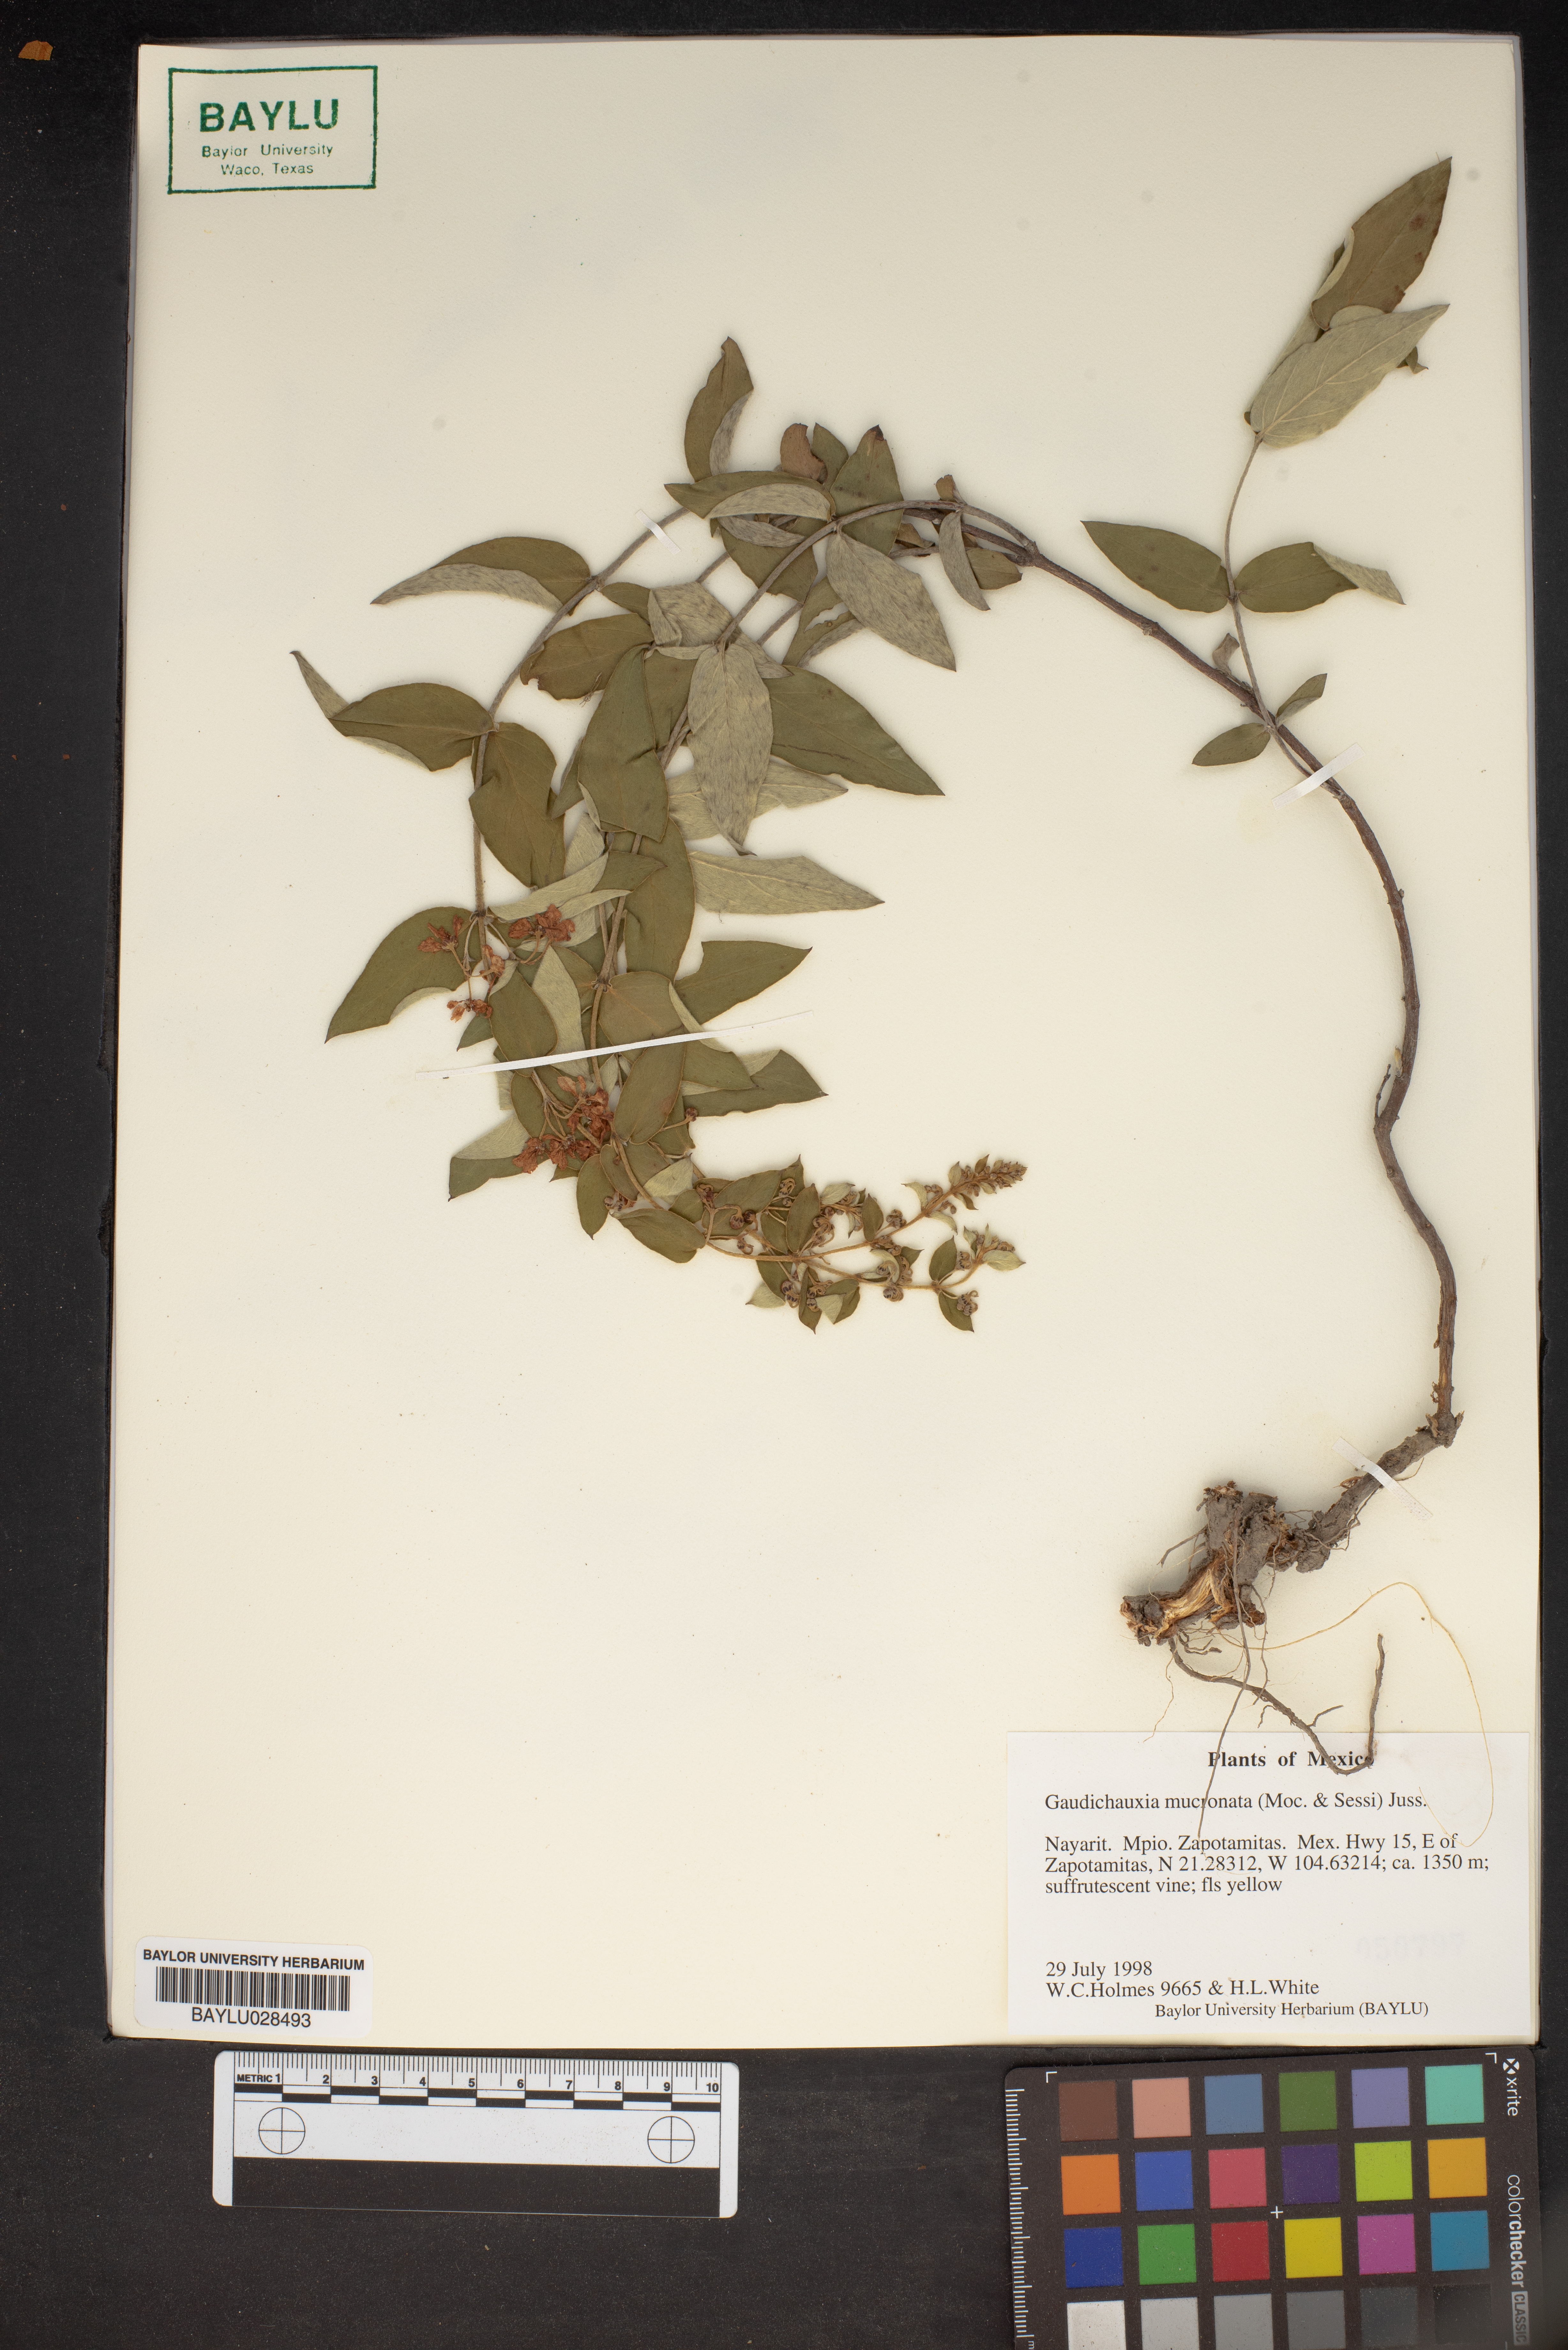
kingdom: Plantae
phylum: Tracheophyta
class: Magnoliopsida
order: Malpighiales
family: Malpighiaceae
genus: Gaudichaudia
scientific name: Gaudichaudia mucronata
